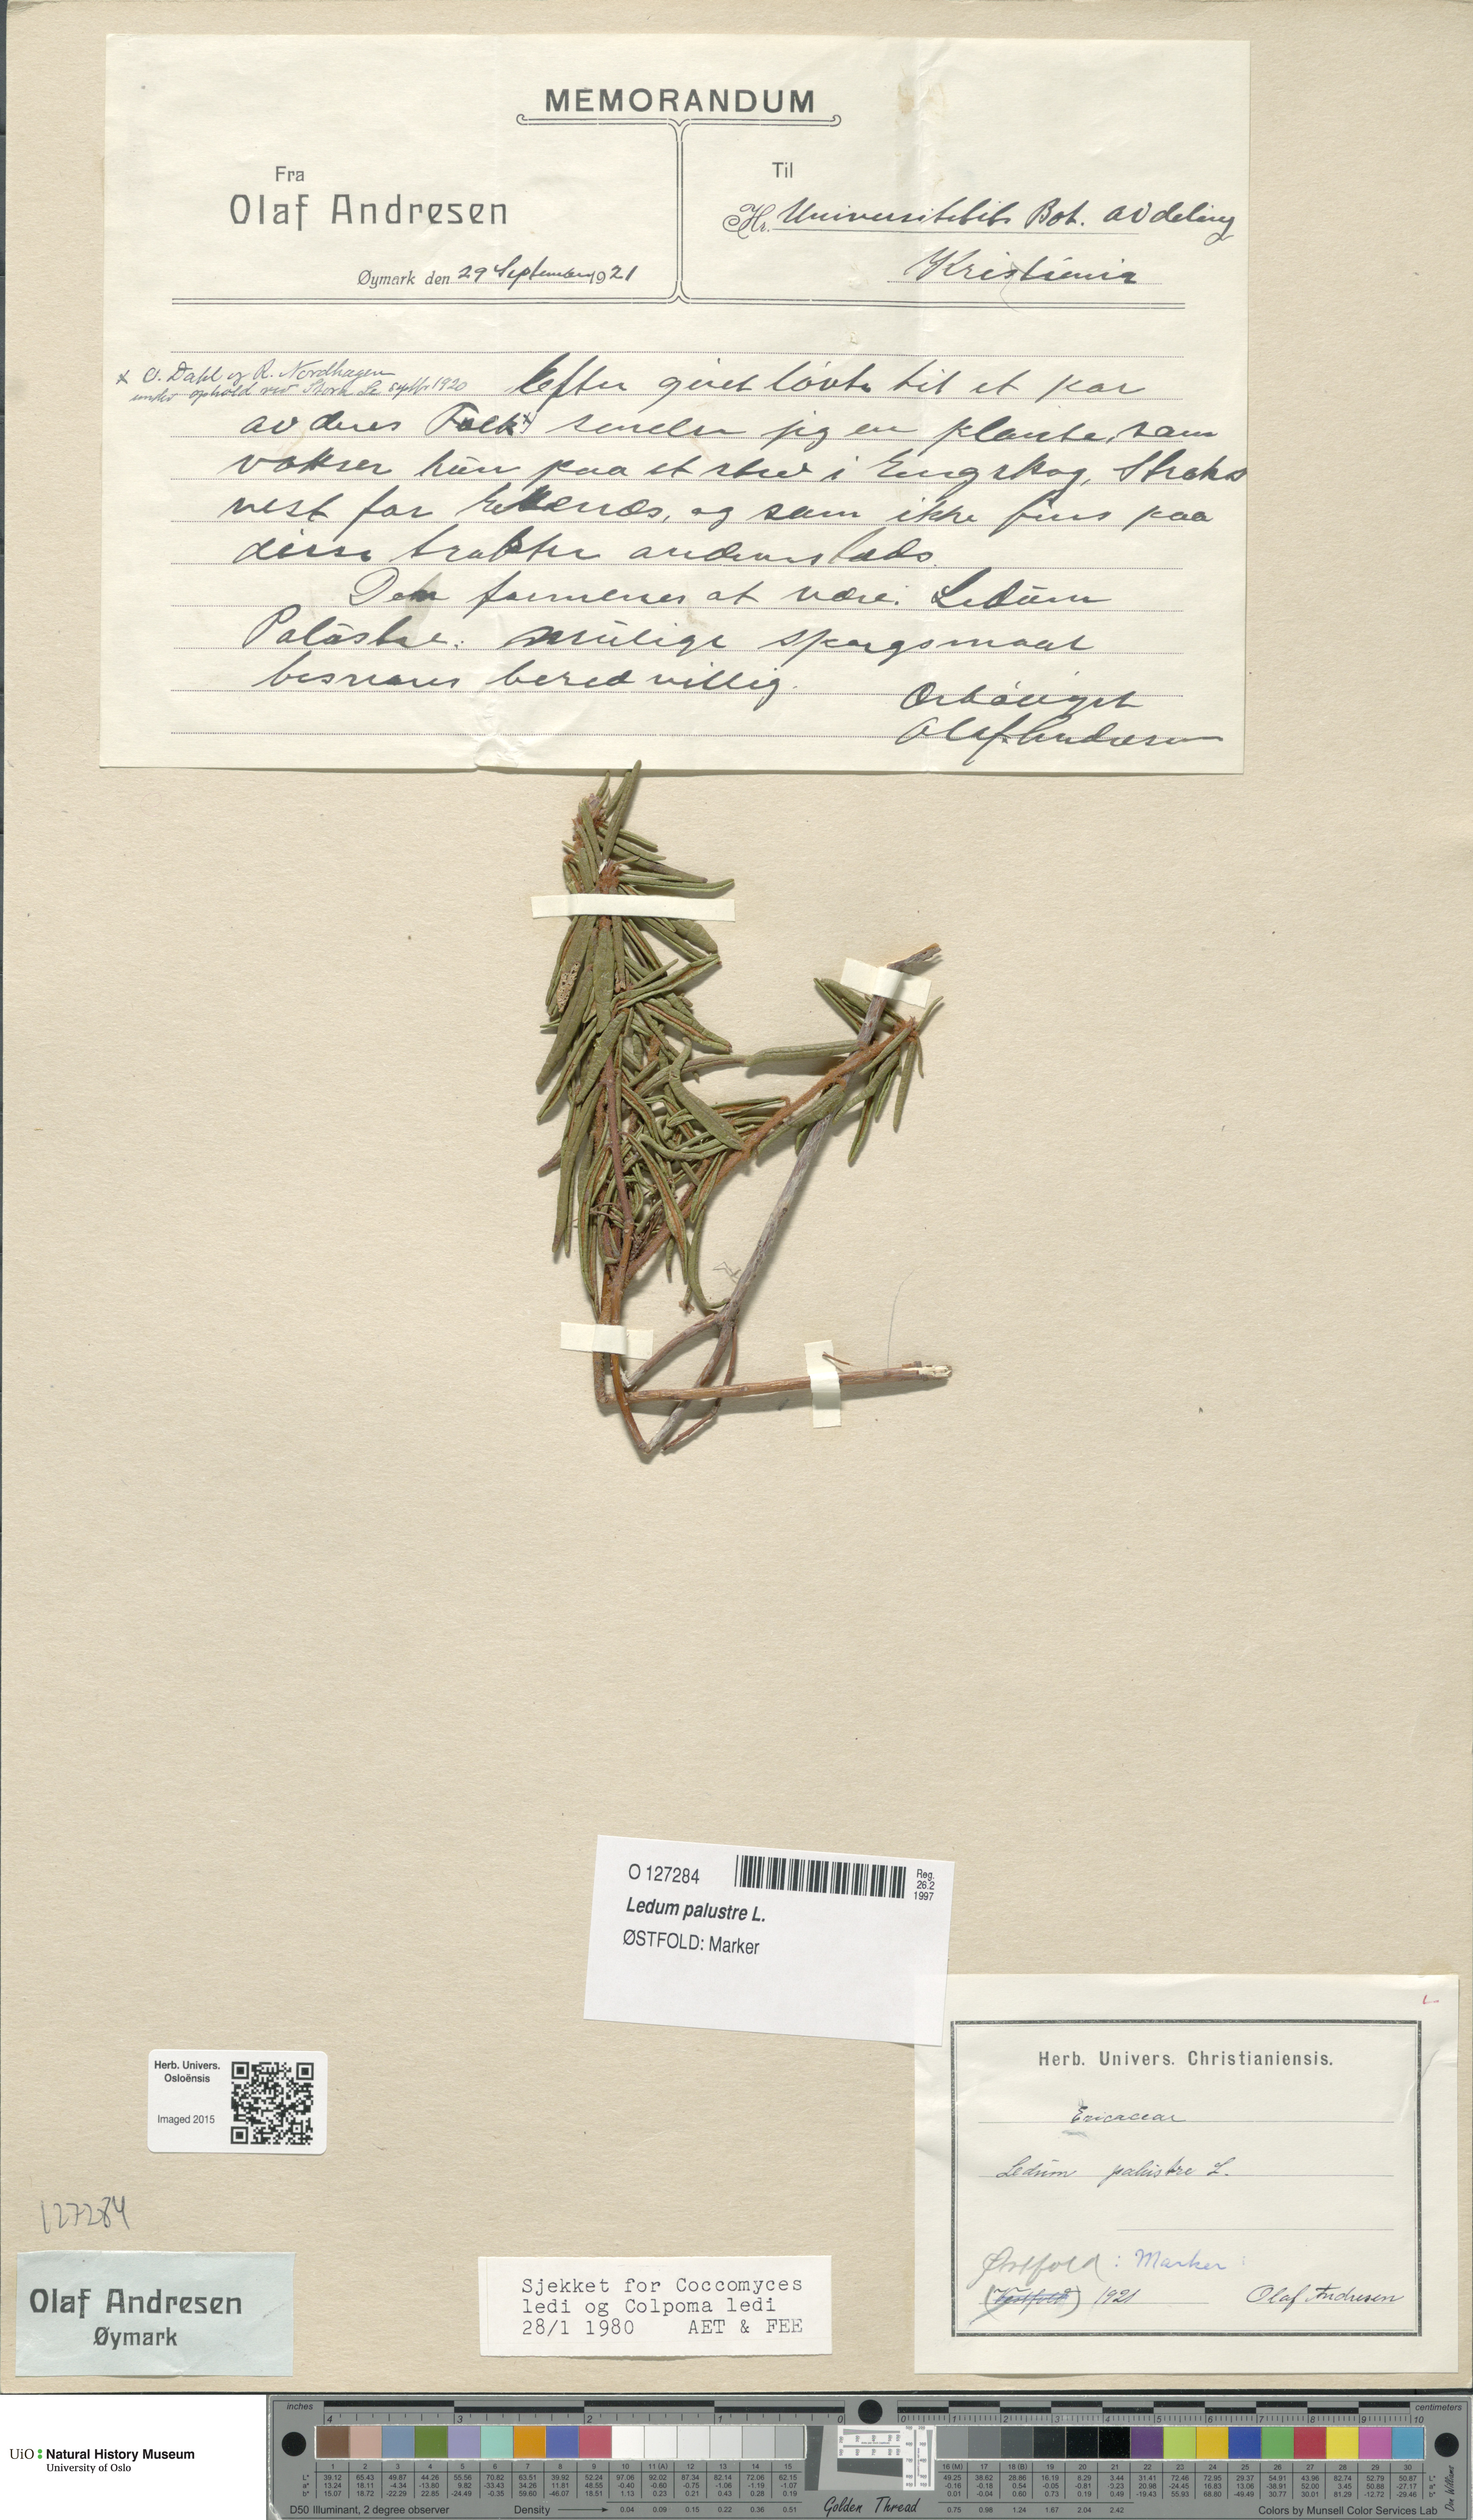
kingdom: Plantae
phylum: Tracheophyta
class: Magnoliopsida
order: Ericales
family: Ericaceae
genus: Rhododendron
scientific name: Rhododendron tomentosum
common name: Marsh labrador tea
